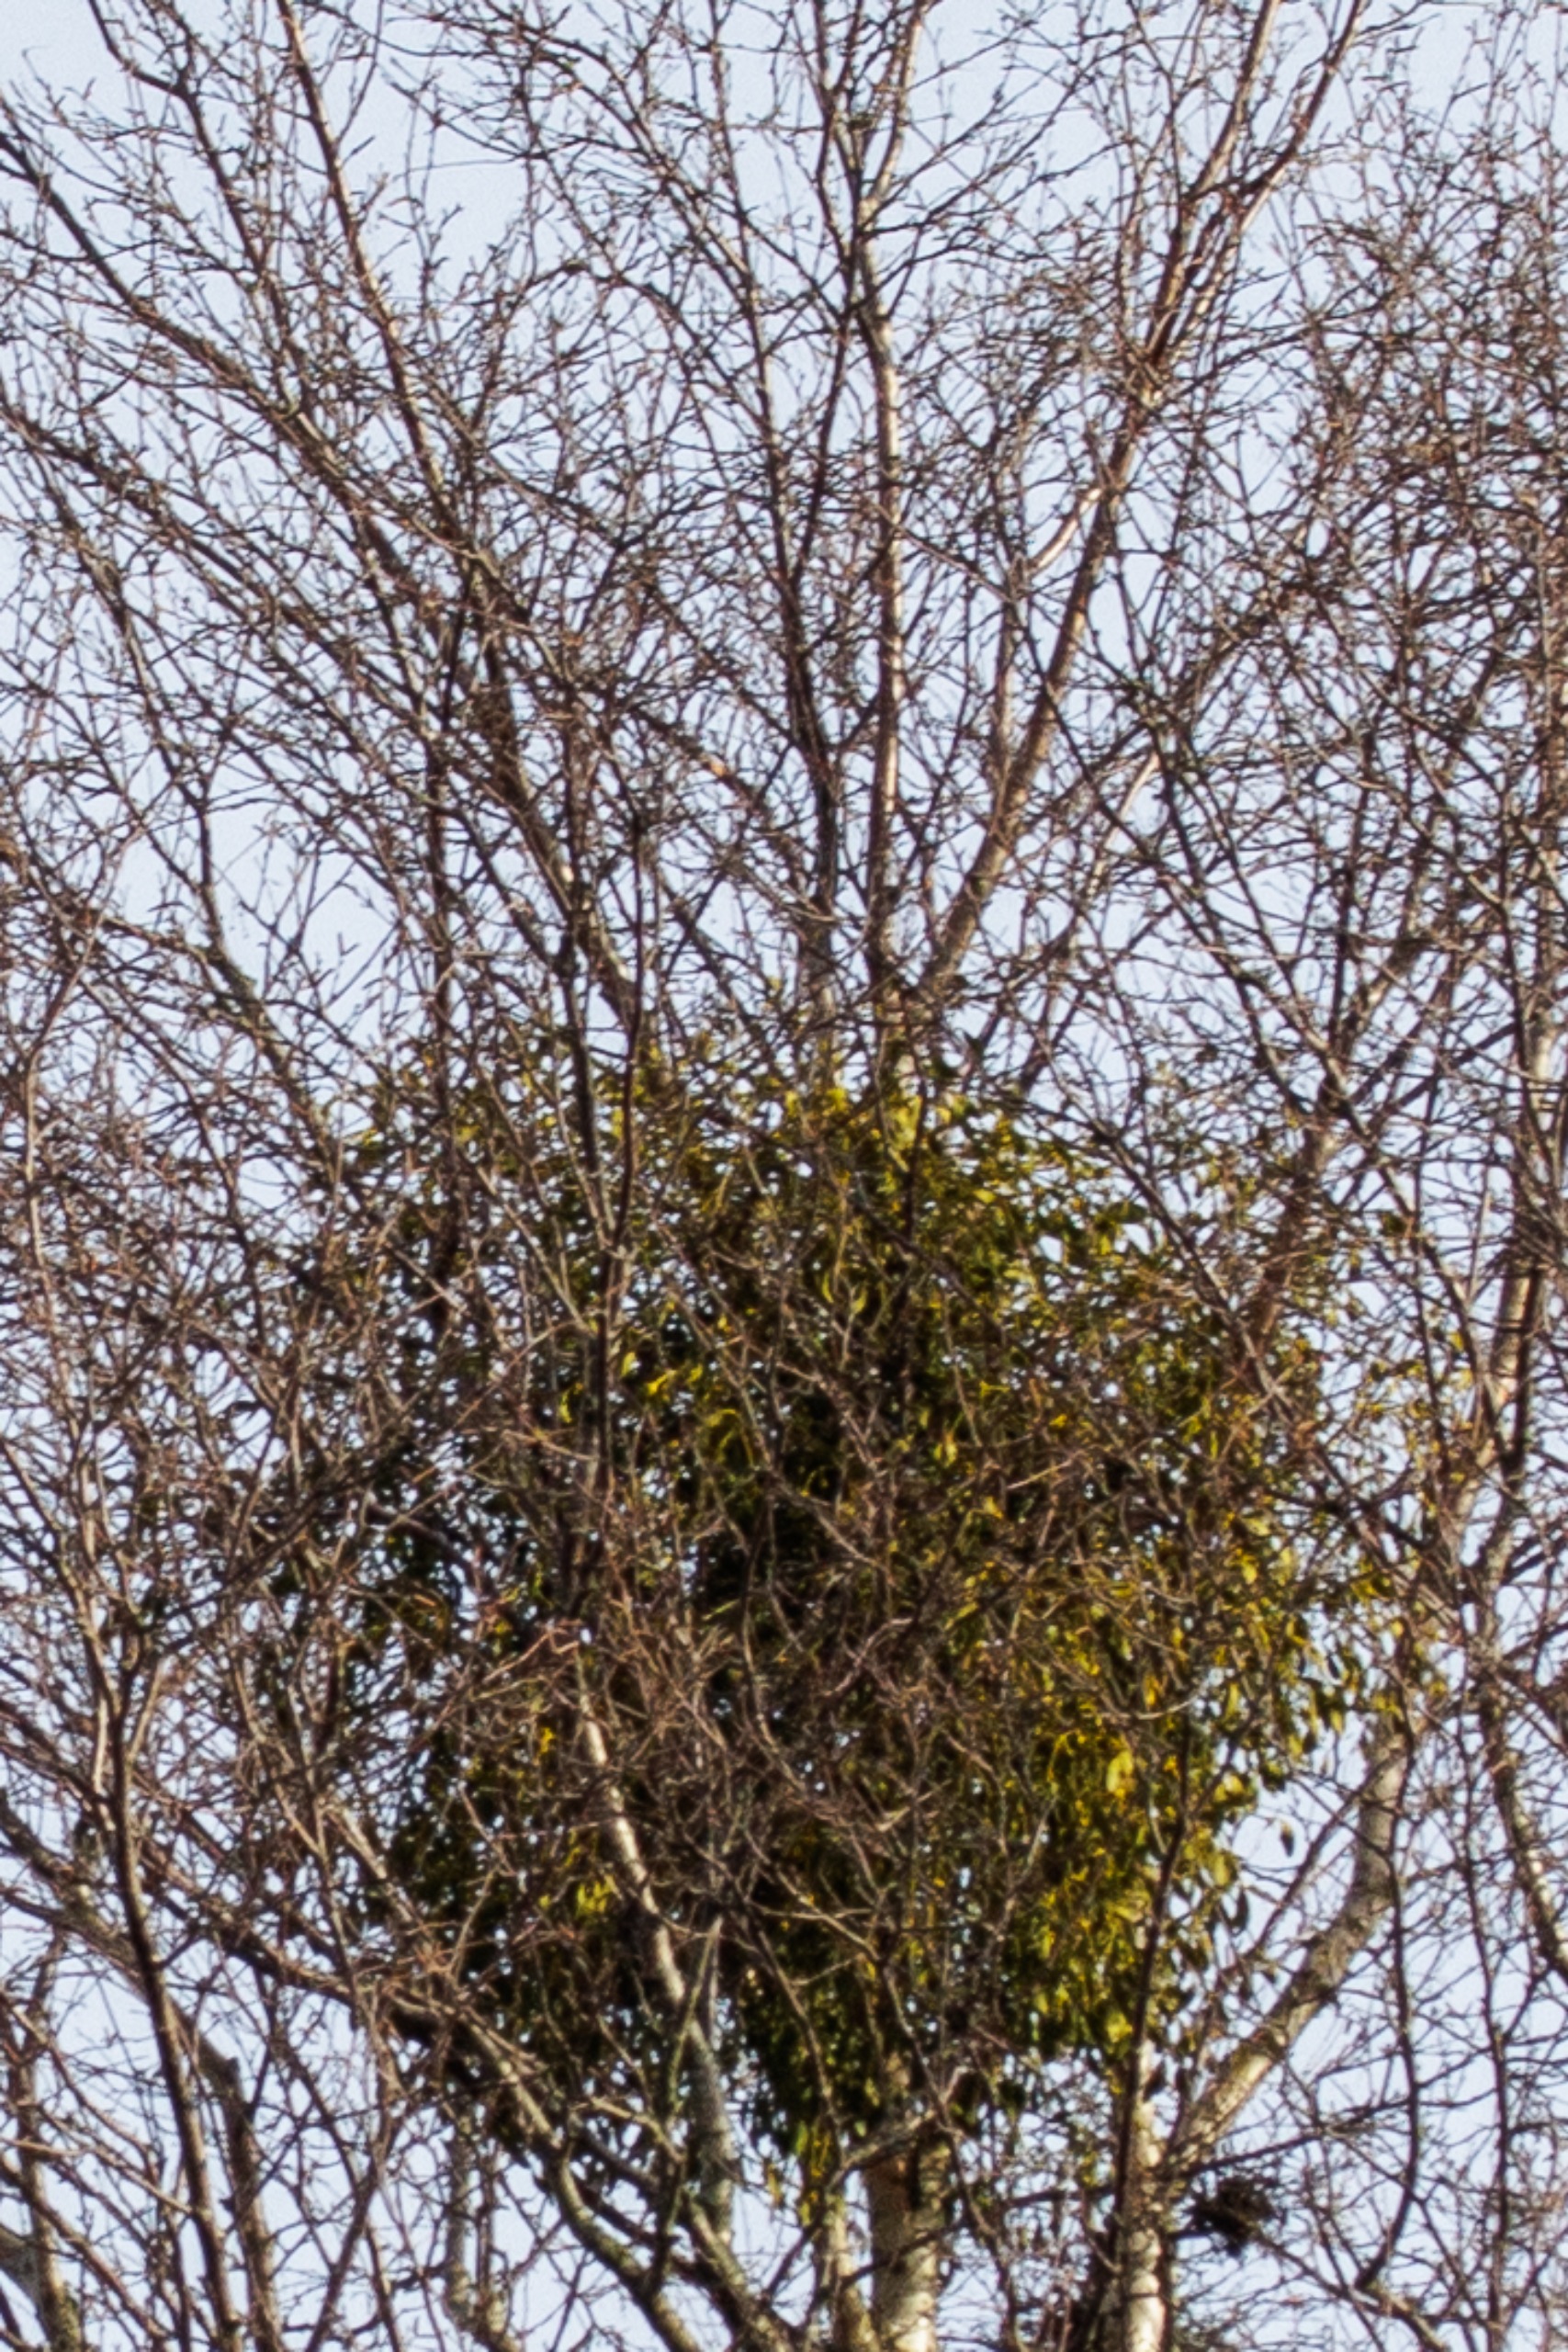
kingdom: Plantae
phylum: Tracheophyta
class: Magnoliopsida
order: Santalales
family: Viscaceae
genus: Viscum
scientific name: Viscum album
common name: Mistelten
